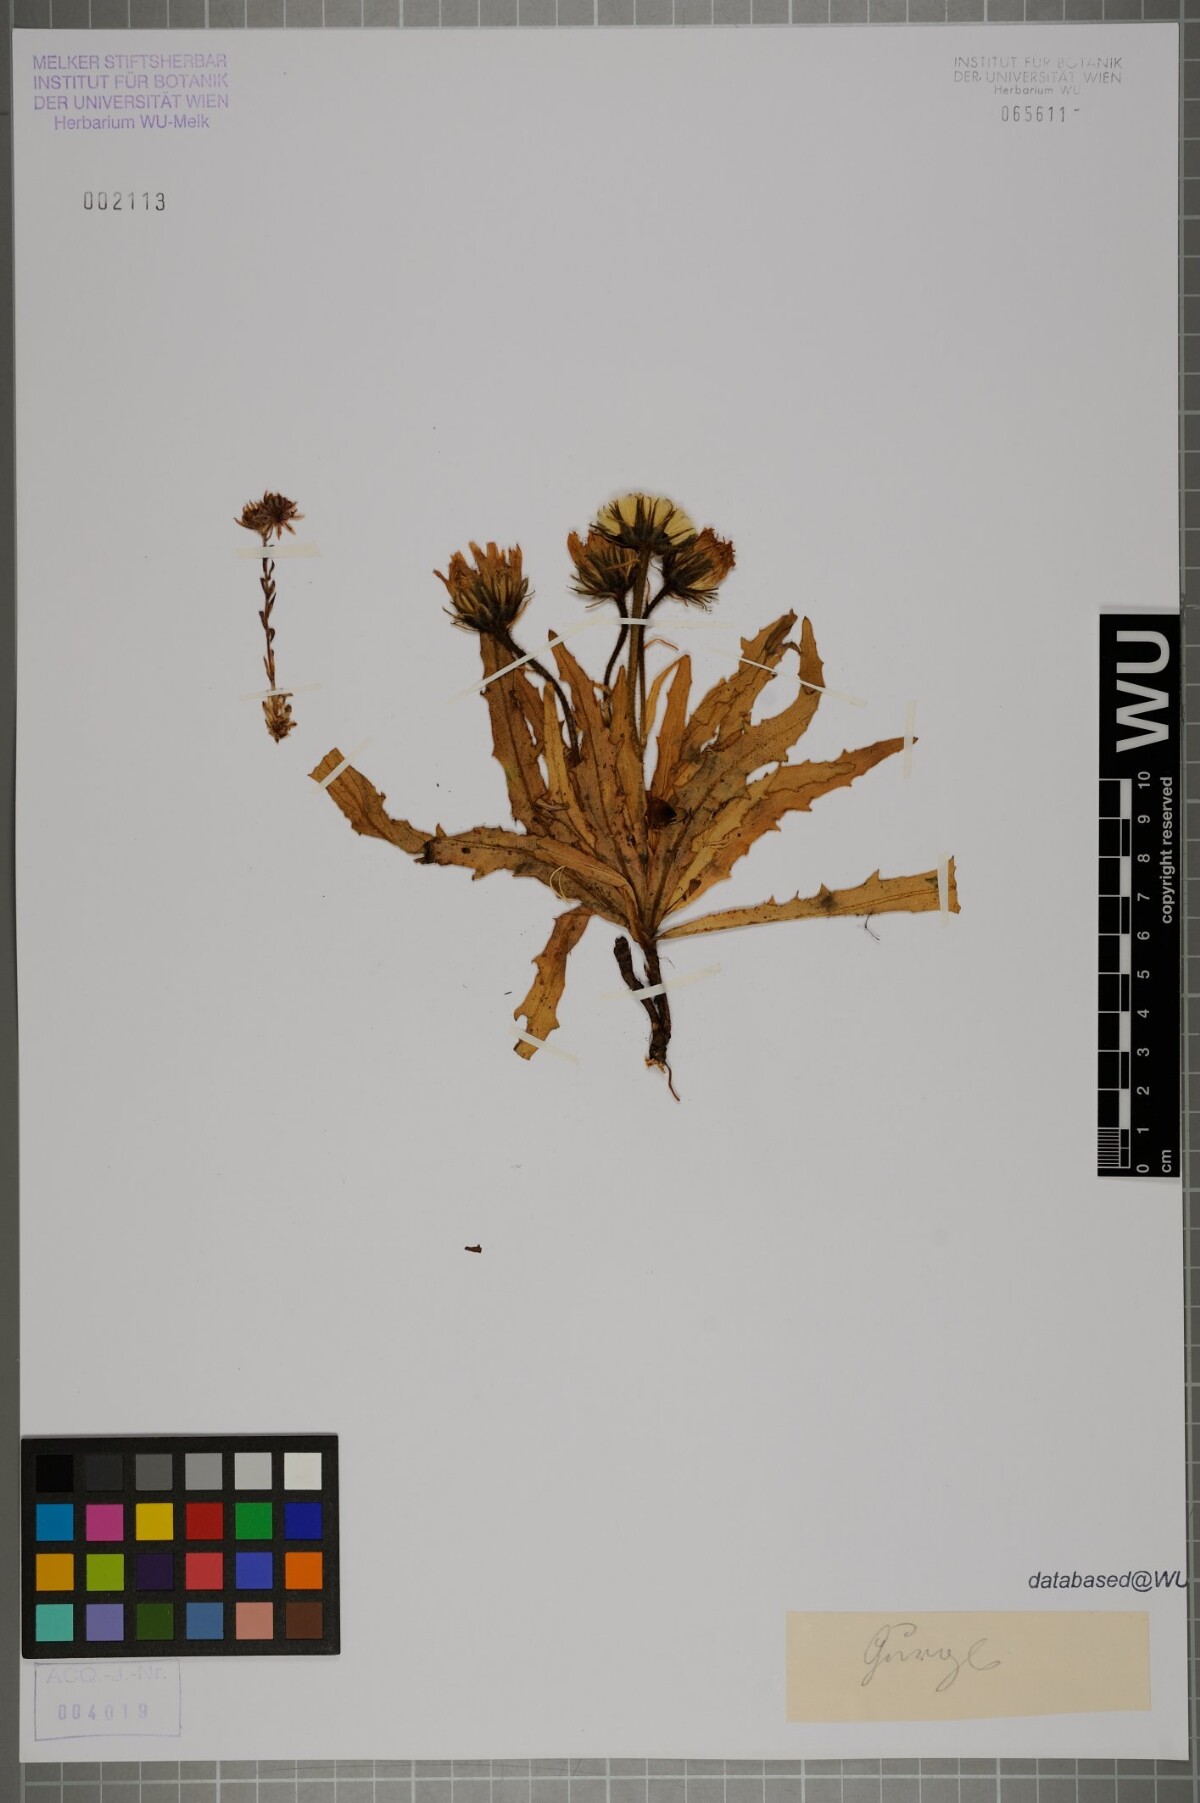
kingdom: Plantae
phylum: Tracheophyta
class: Magnoliopsida
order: Asterales
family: Asteraceae
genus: Schlagintweitia
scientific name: Schlagintweitia intybacea
